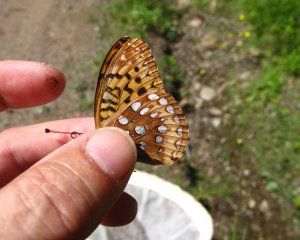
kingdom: Animalia
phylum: Arthropoda
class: Insecta
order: Lepidoptera
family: Nymphalidae
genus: Speyeria
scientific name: Speyeria cybele
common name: Great Spangled Fritillary
